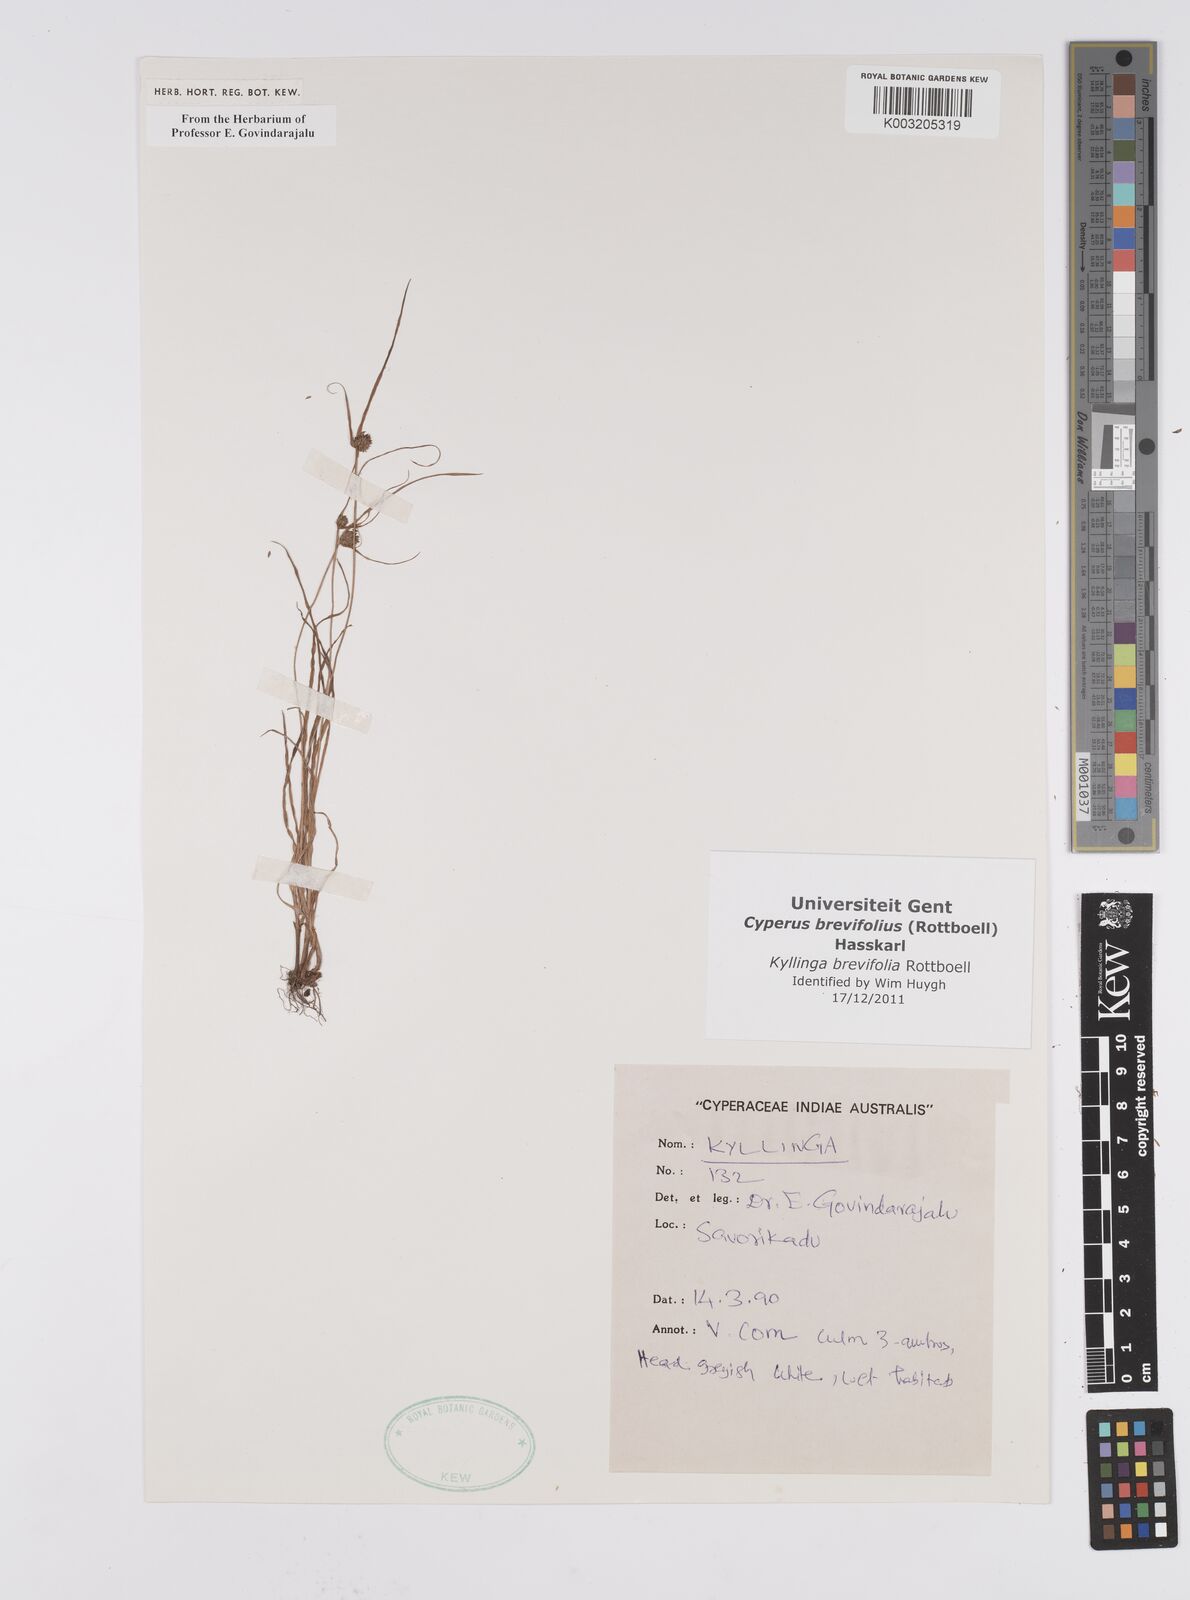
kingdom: Plantae
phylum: Tracheophyta
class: Liliopsida
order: Poales
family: Cyperaceae
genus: Cyperus
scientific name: Cyperus brevifolius
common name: Globe kyllinga
